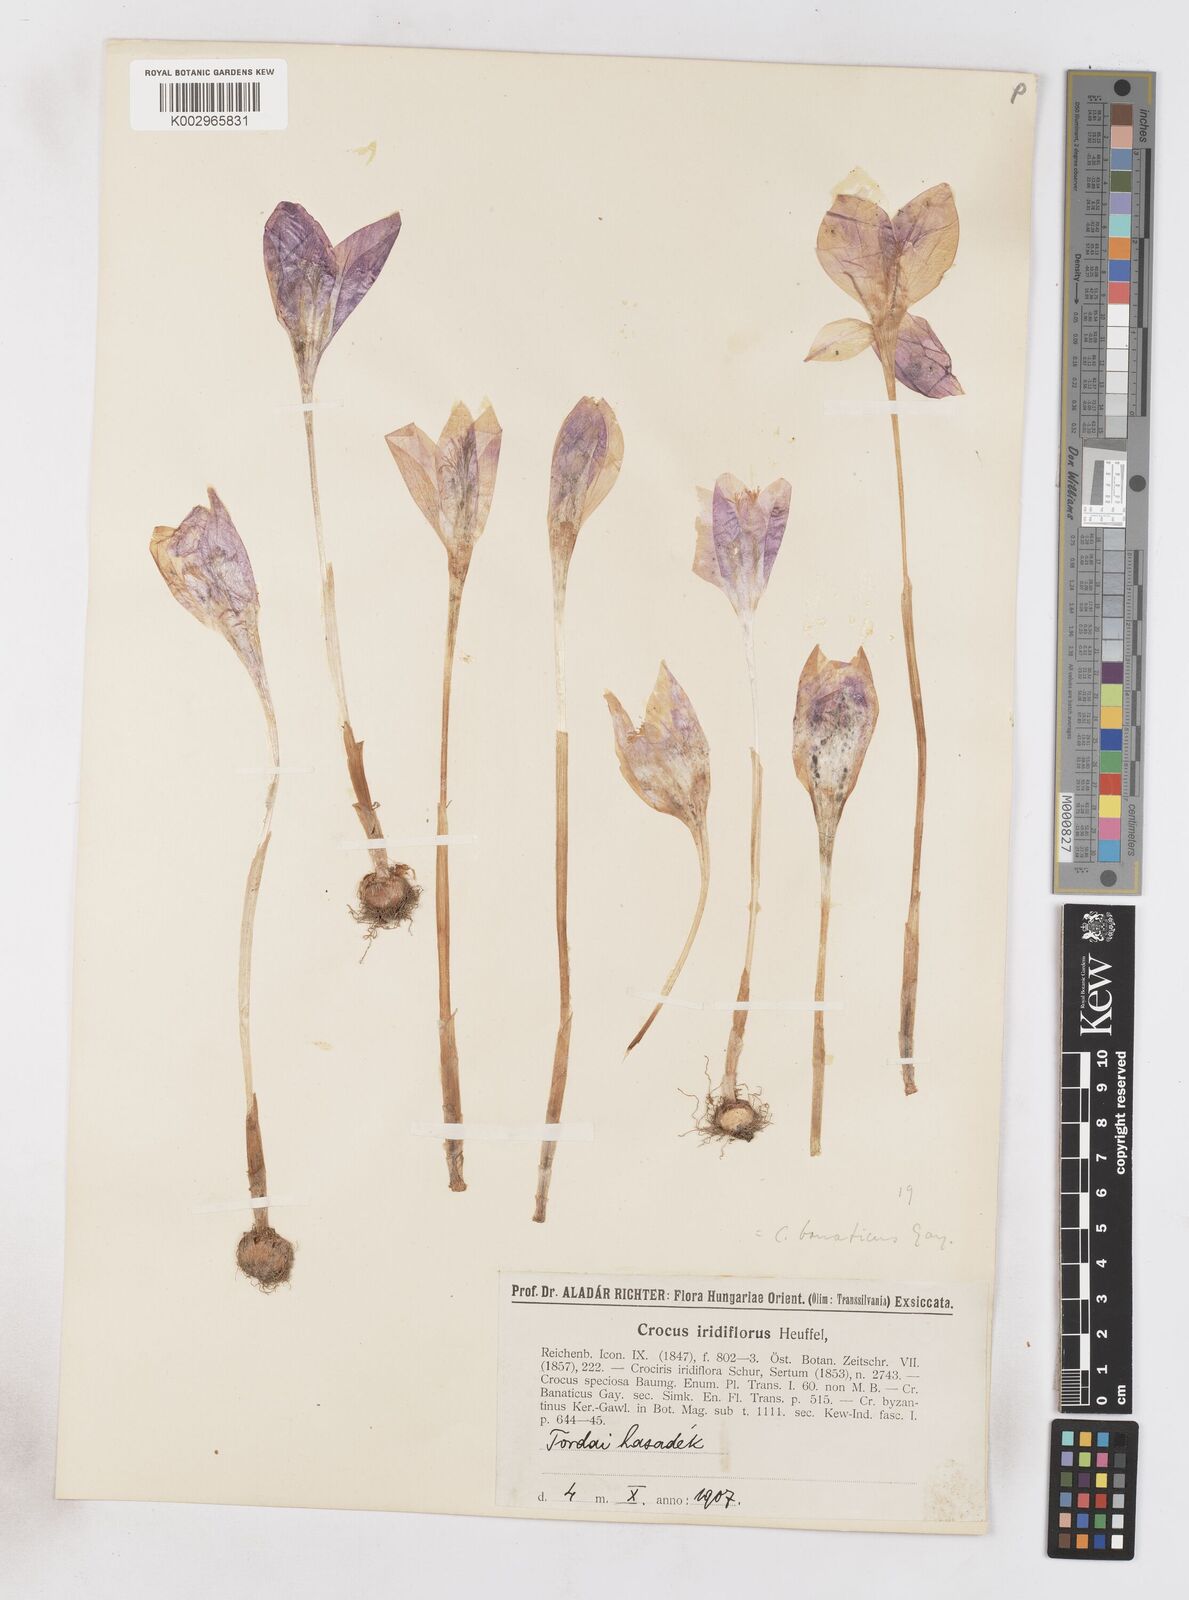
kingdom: Plantae
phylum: Tracheophyta
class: Liliopsida
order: Asparagales
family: Iridaceae
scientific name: Iridaceae
